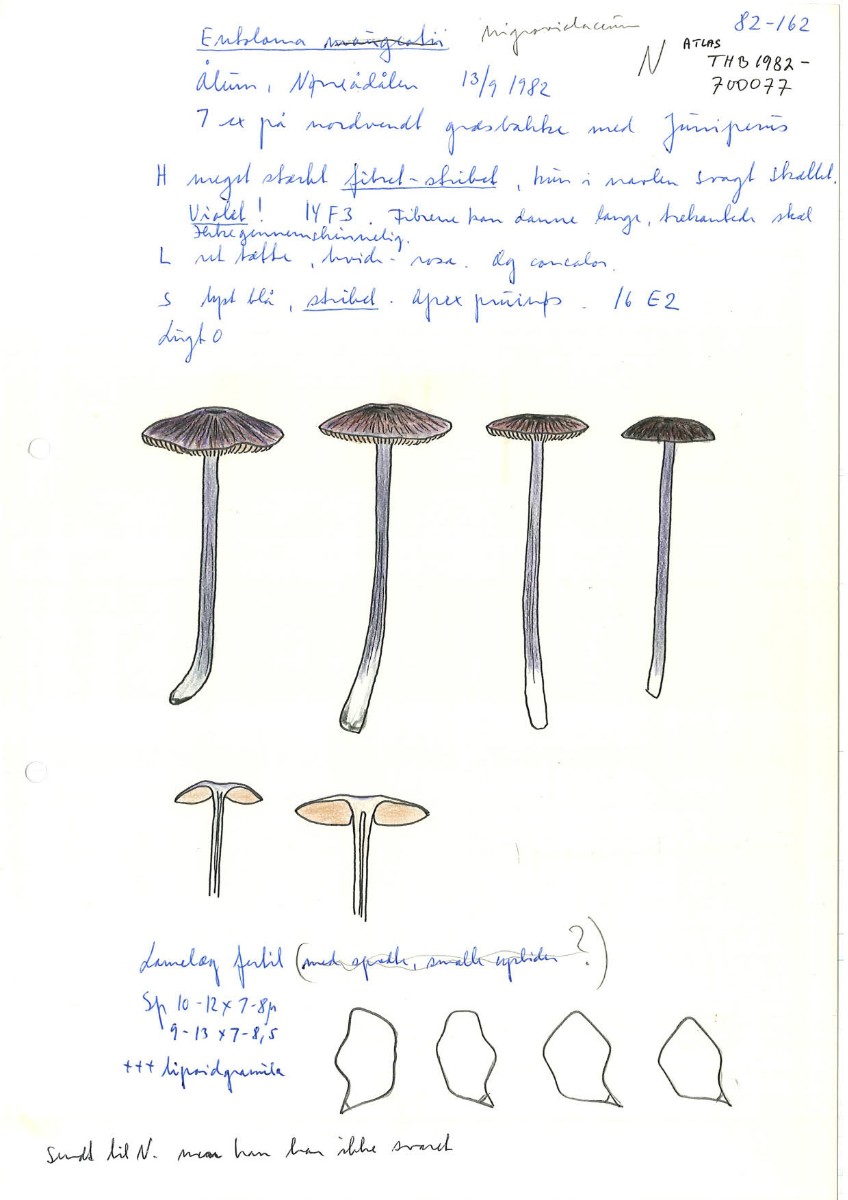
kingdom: Fungi
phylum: Basidiomycota
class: Agaricomycetes
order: Agaricales
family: Entolomataceae
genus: Entoloma
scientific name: Entoloma viiduense
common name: purpurbrun rødblad
